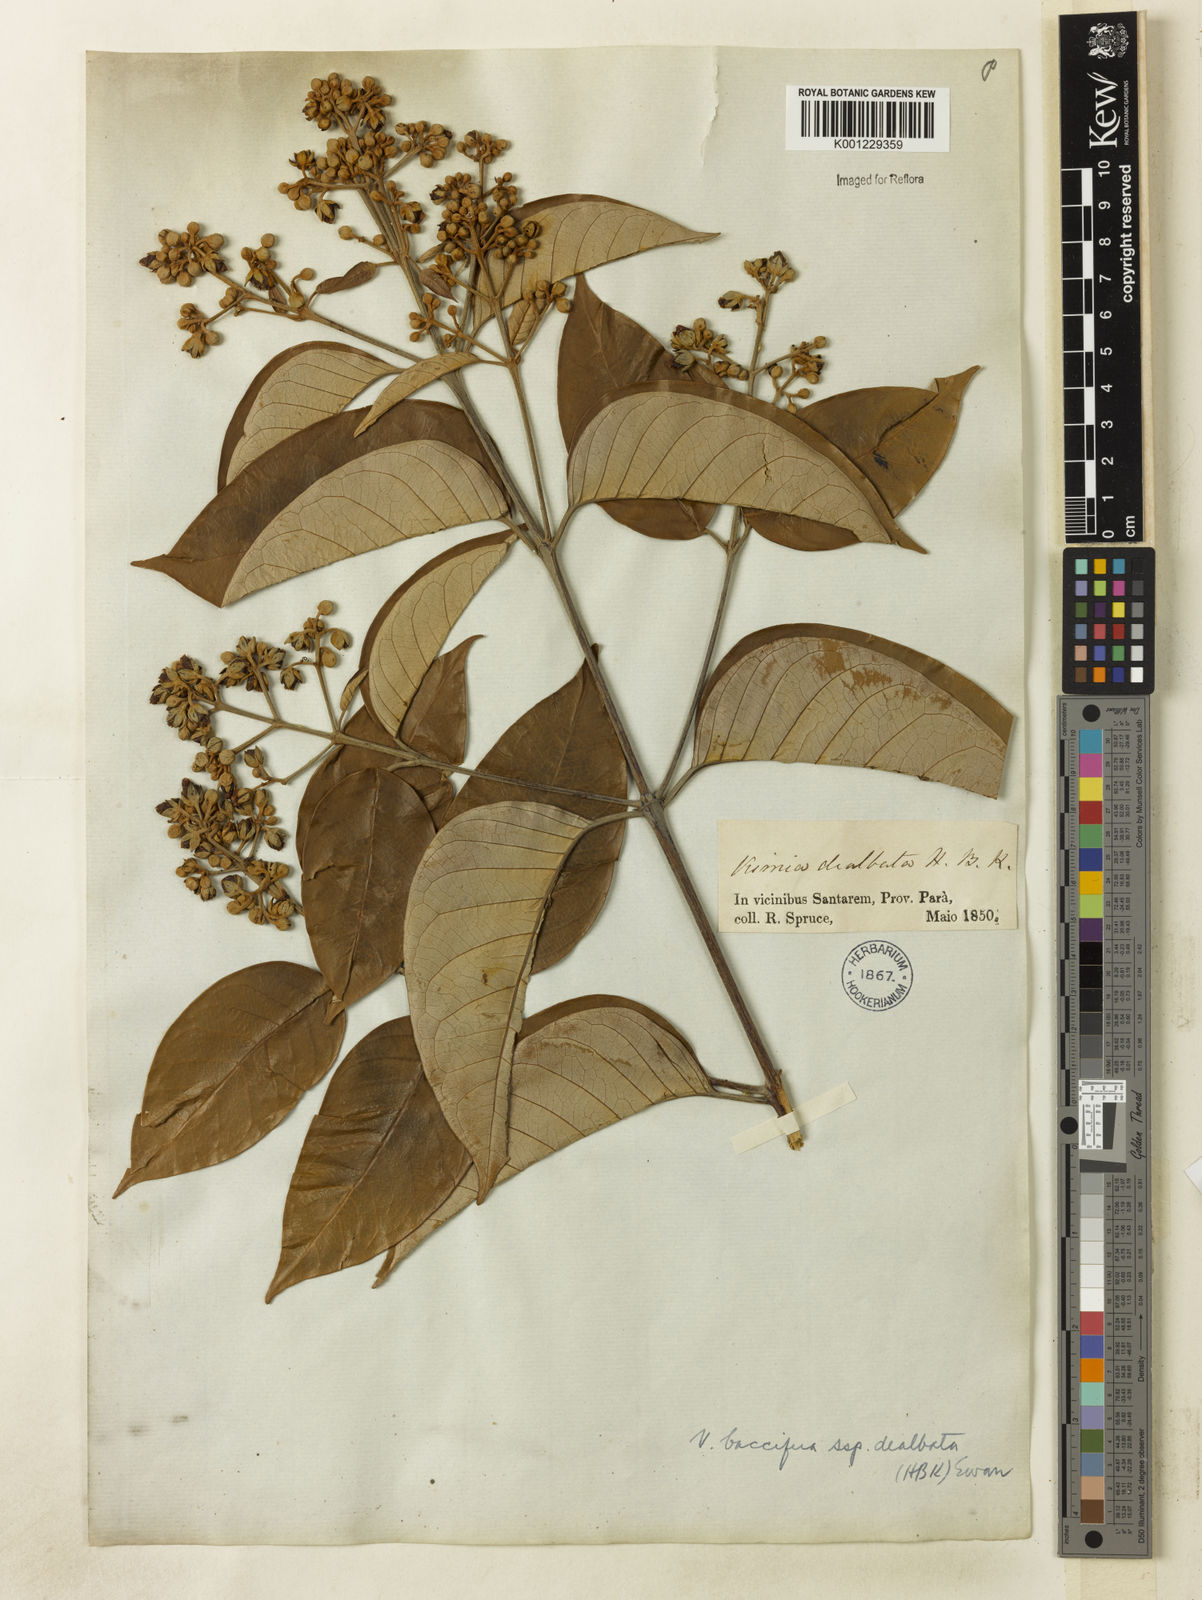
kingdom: Plantae
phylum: Tracheophyta
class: Magnoliopsida
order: Malpighiales
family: Hypericaceae
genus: Vismia
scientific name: Vismia gracilis
